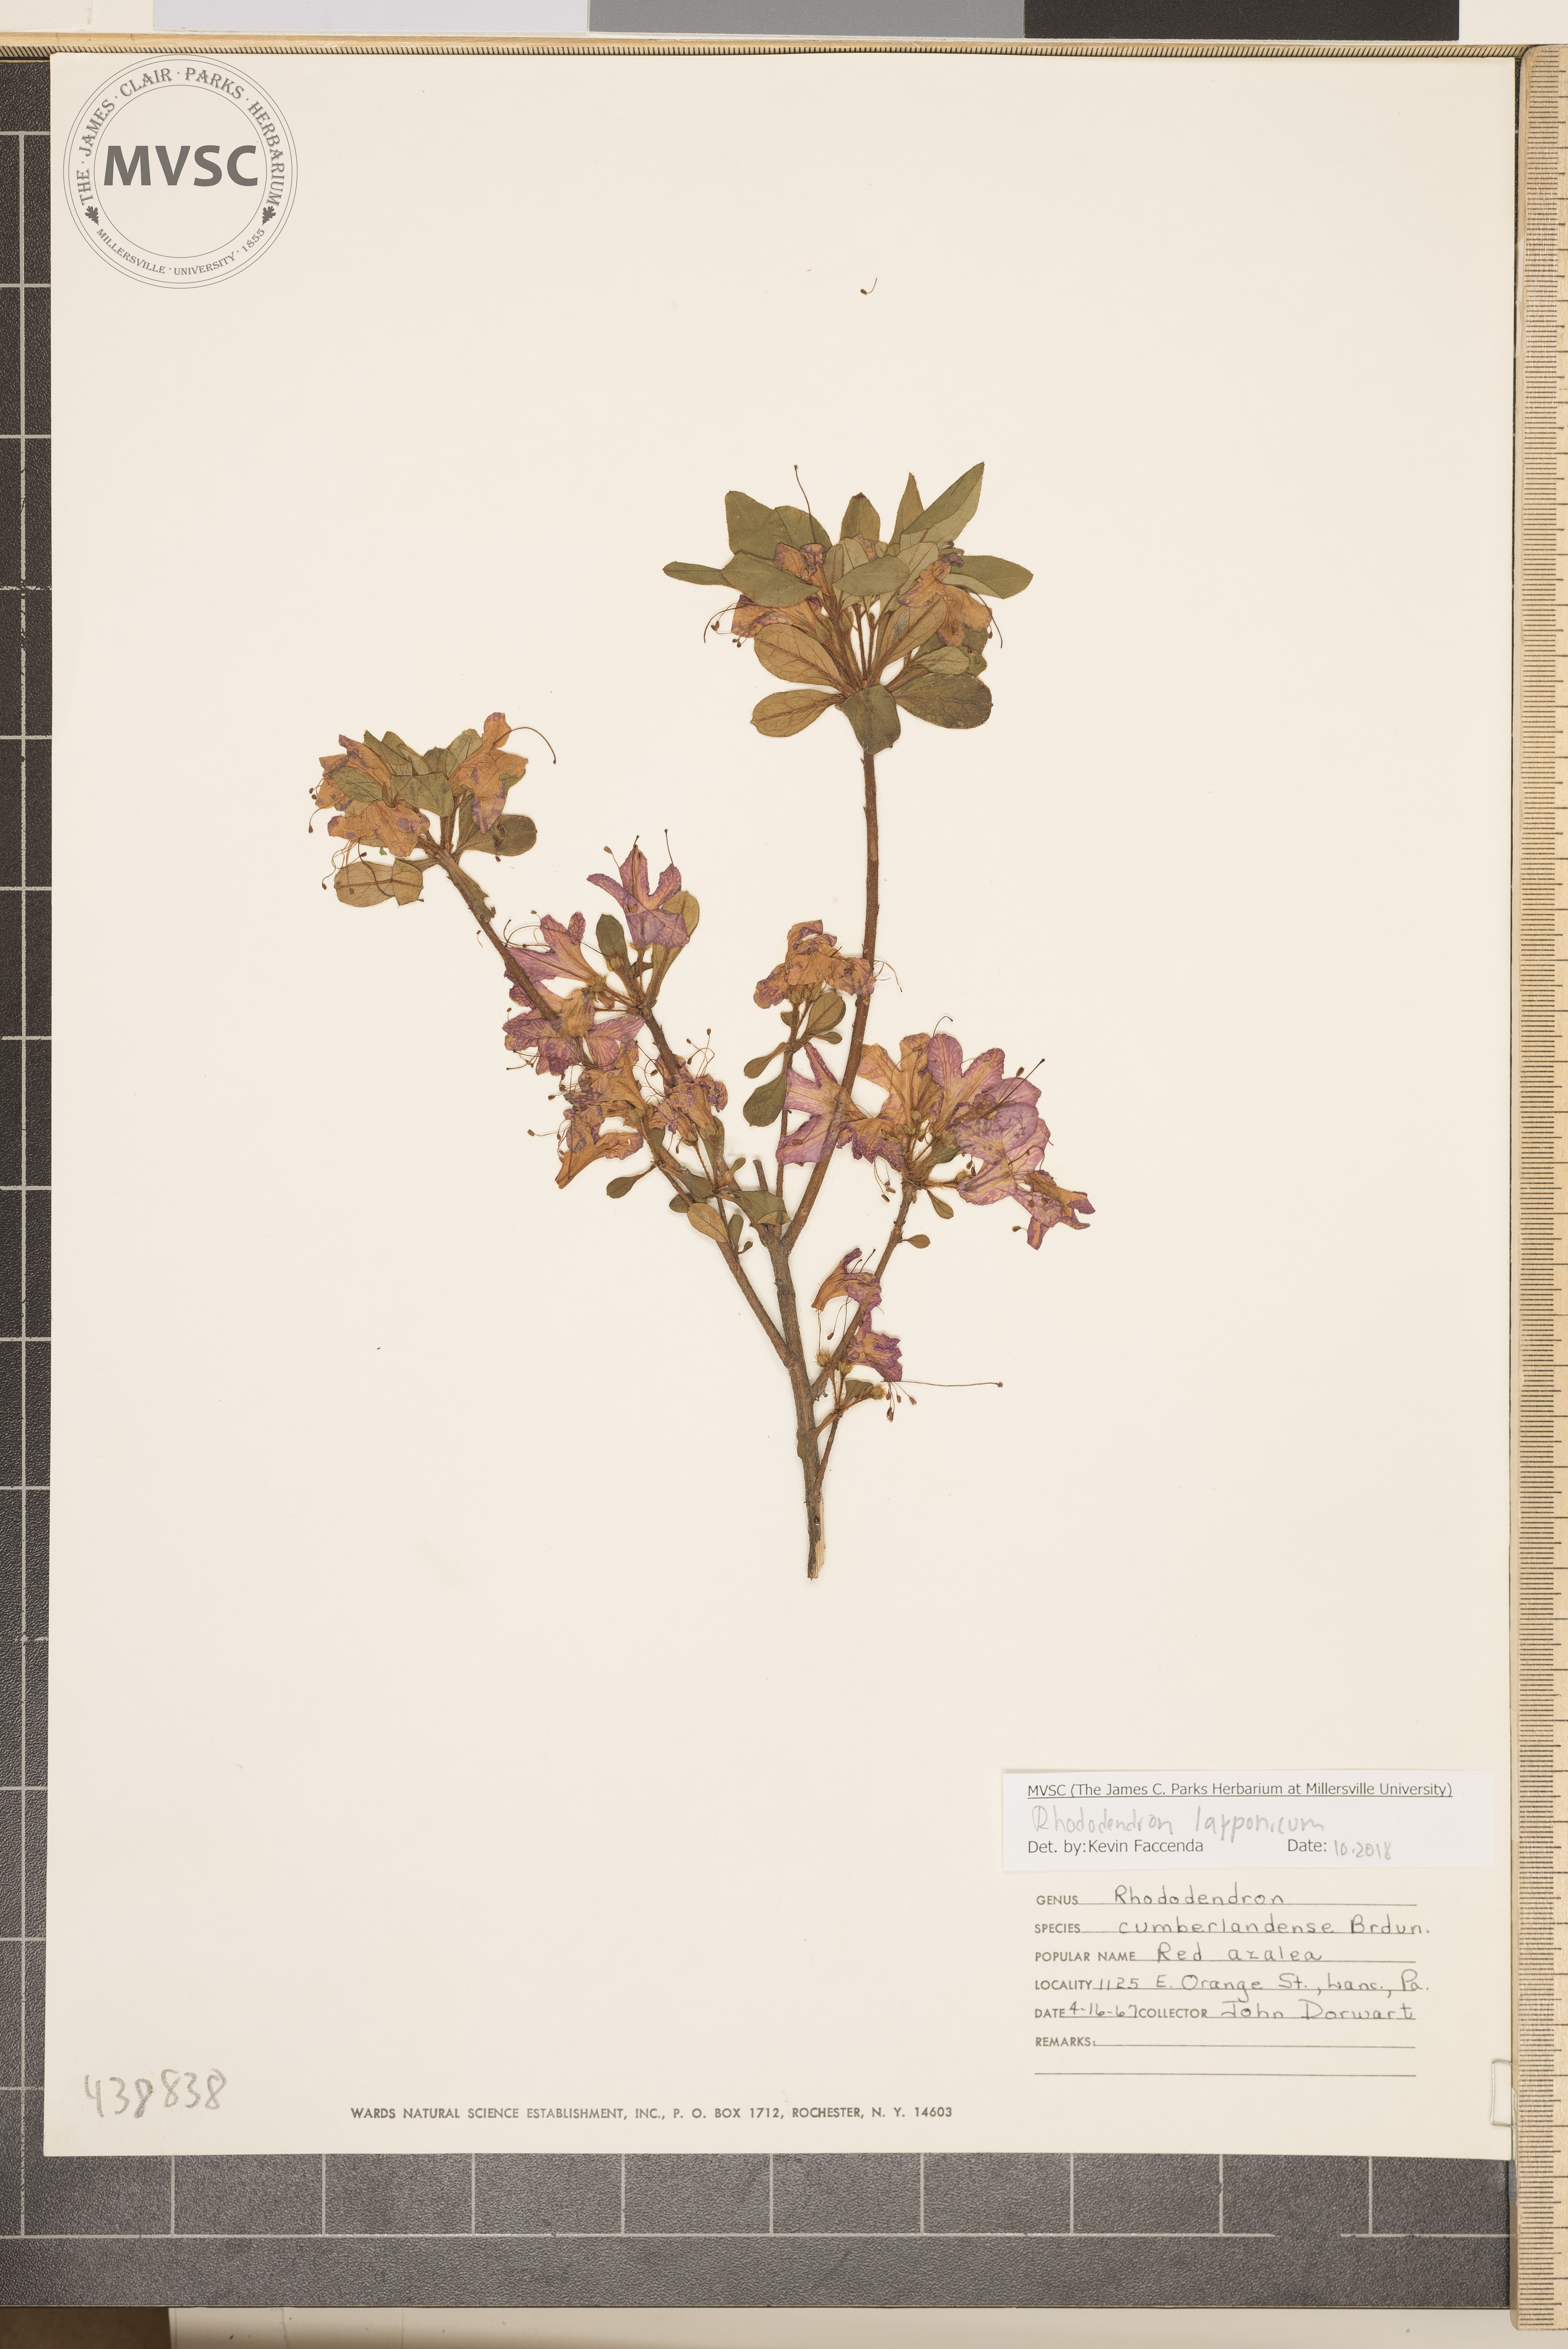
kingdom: Plantae
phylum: Tracheophyta
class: Magnoliopsida
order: Ericales
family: Ericaceae
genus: Rhododendron
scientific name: Rhododendron lapponicum
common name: Lapland rhododendron
